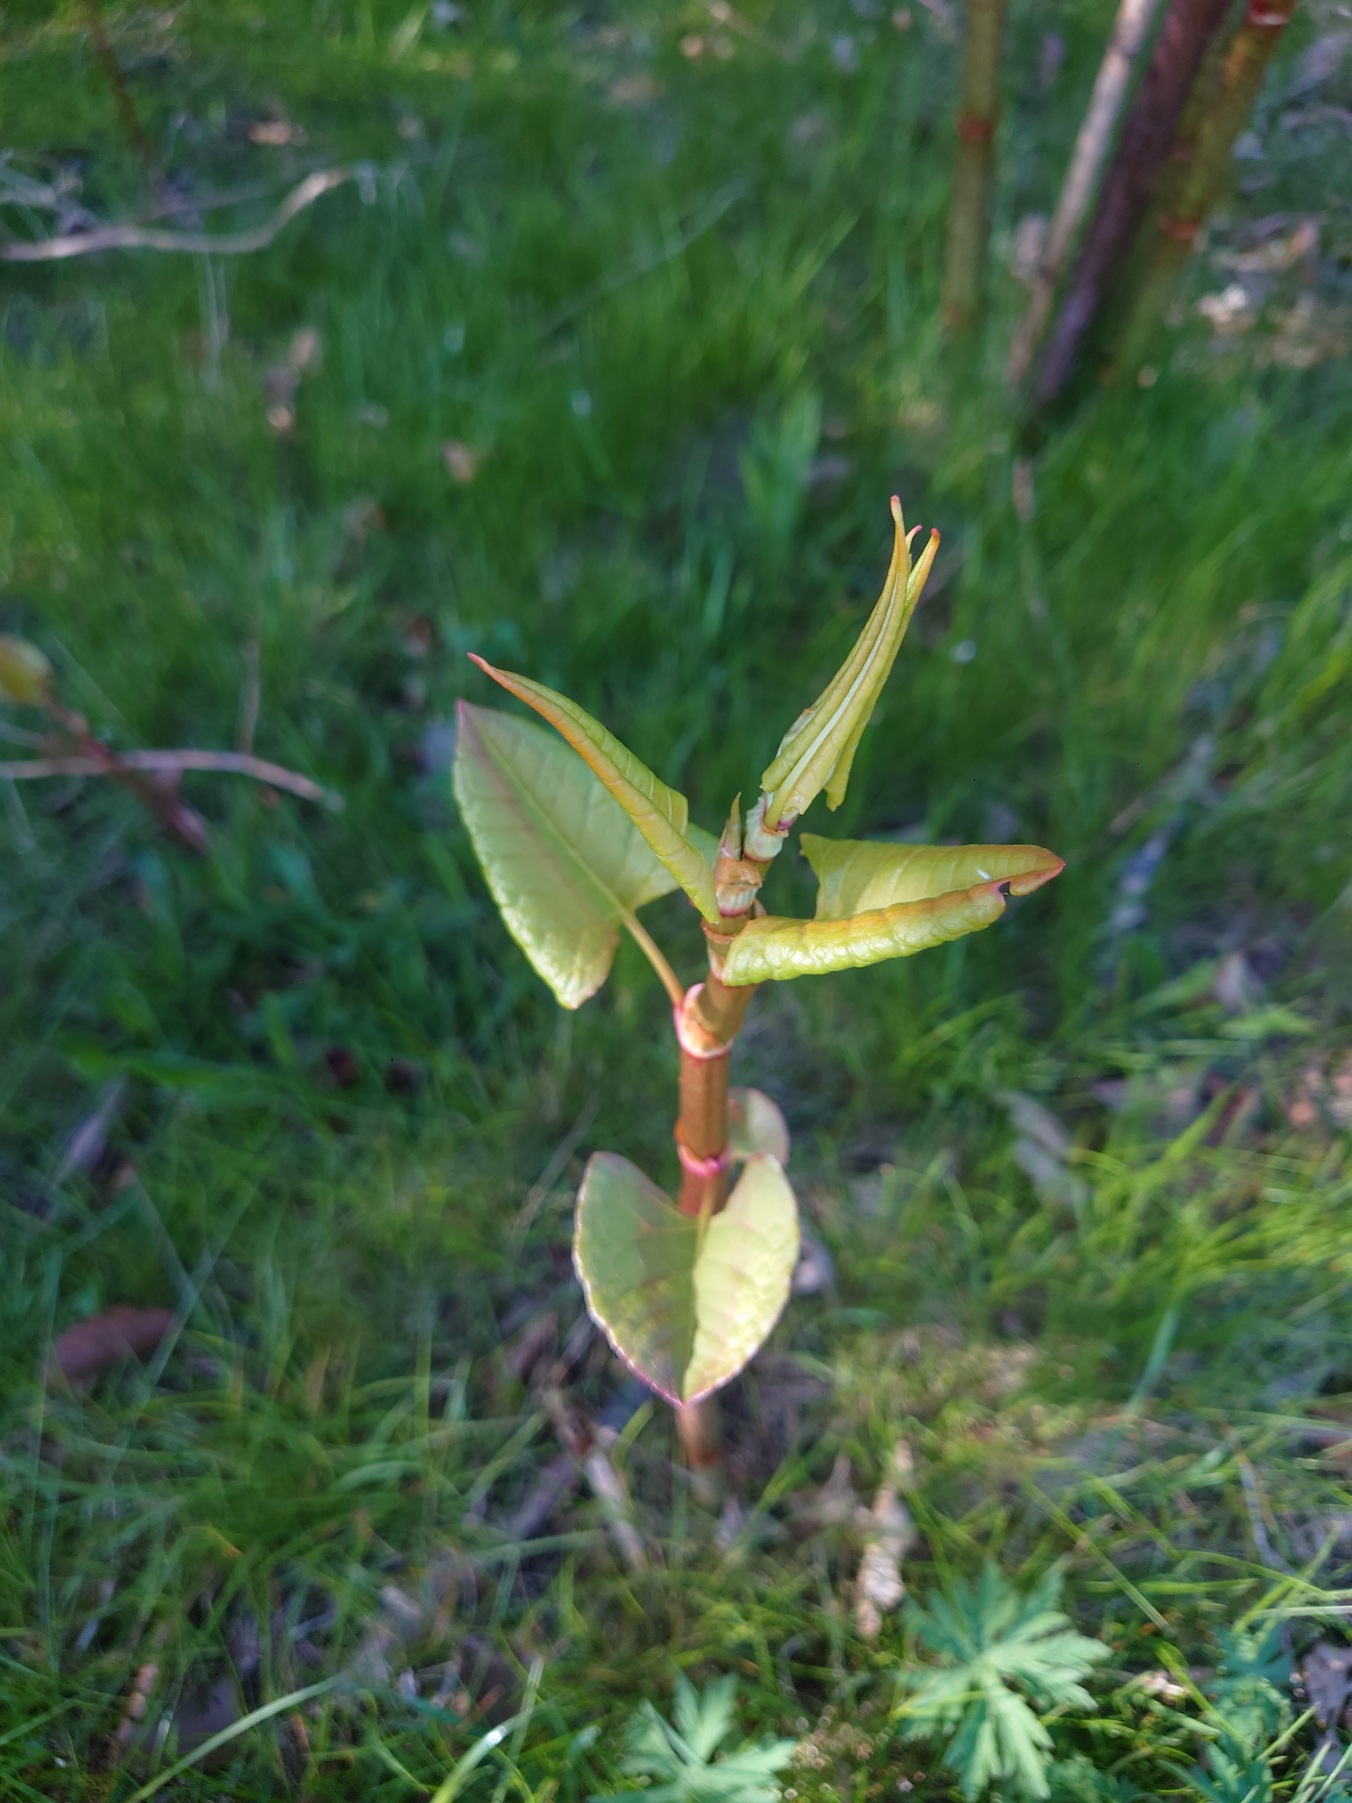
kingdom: Plantae
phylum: Tracheophyta
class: Magnoliopsida
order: Caryophyllales
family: Polygonaceae
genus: Reynoutria
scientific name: Reynoutria japonica
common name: Japan-pileurt
